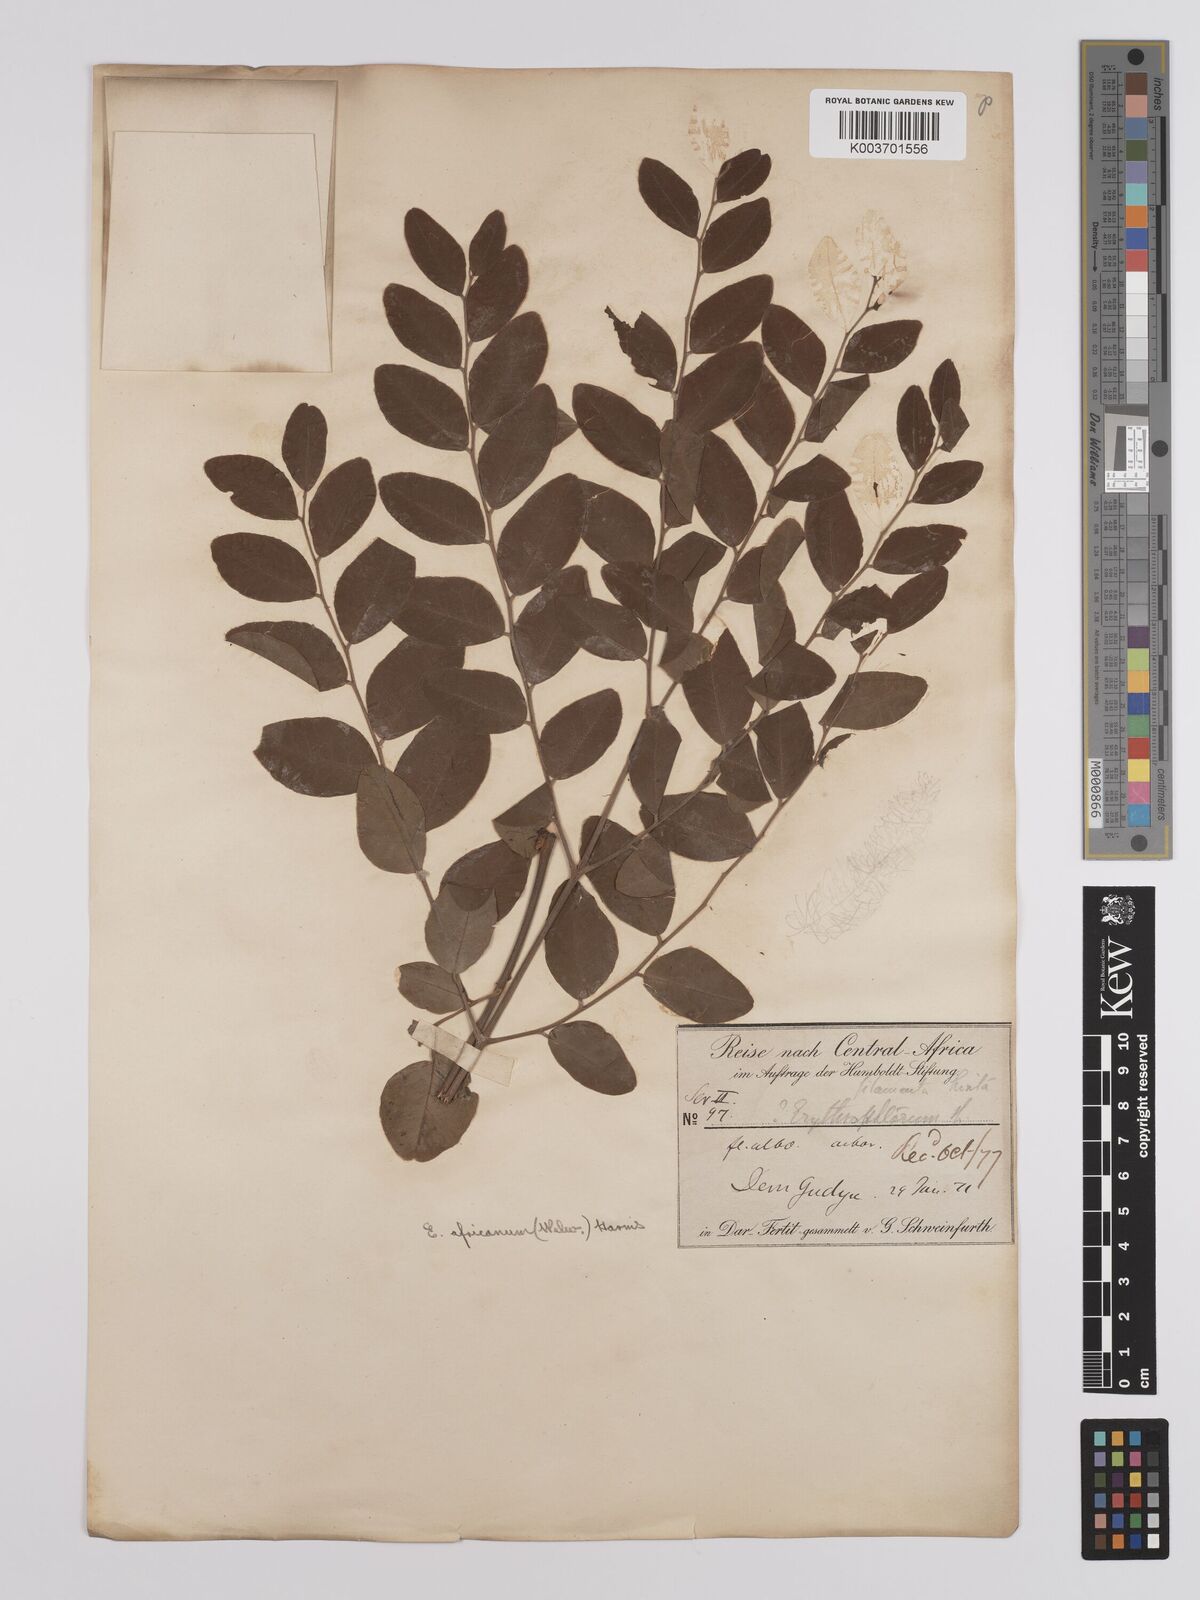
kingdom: Plantae
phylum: Tracheophyta
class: Magnoliopsida
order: Fabales
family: Fabaceae
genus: Erythrophleum
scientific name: Erythrophleum africanum
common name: African blackwood
